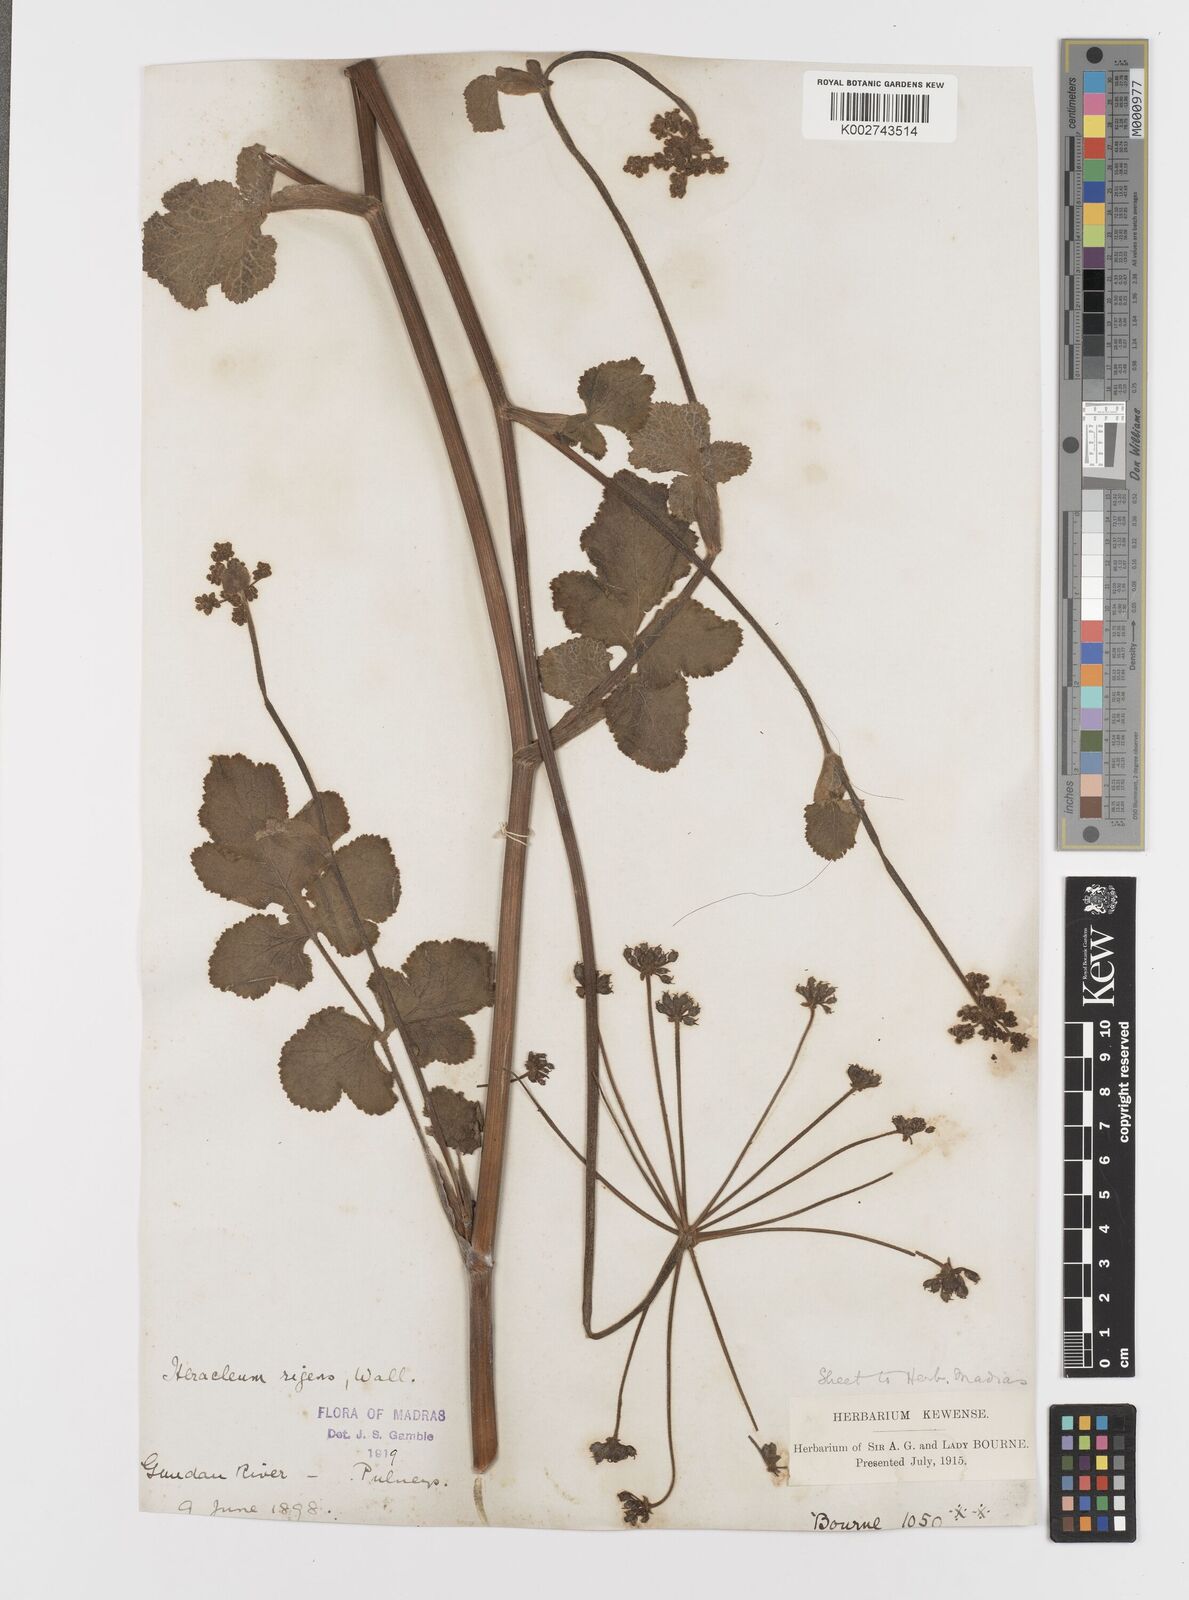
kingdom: Plantae
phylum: Tracheophyta
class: Magnoliopsida
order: Apiales
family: Apiaceae
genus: Tetrataenium
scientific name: Tetrataenium rigens
